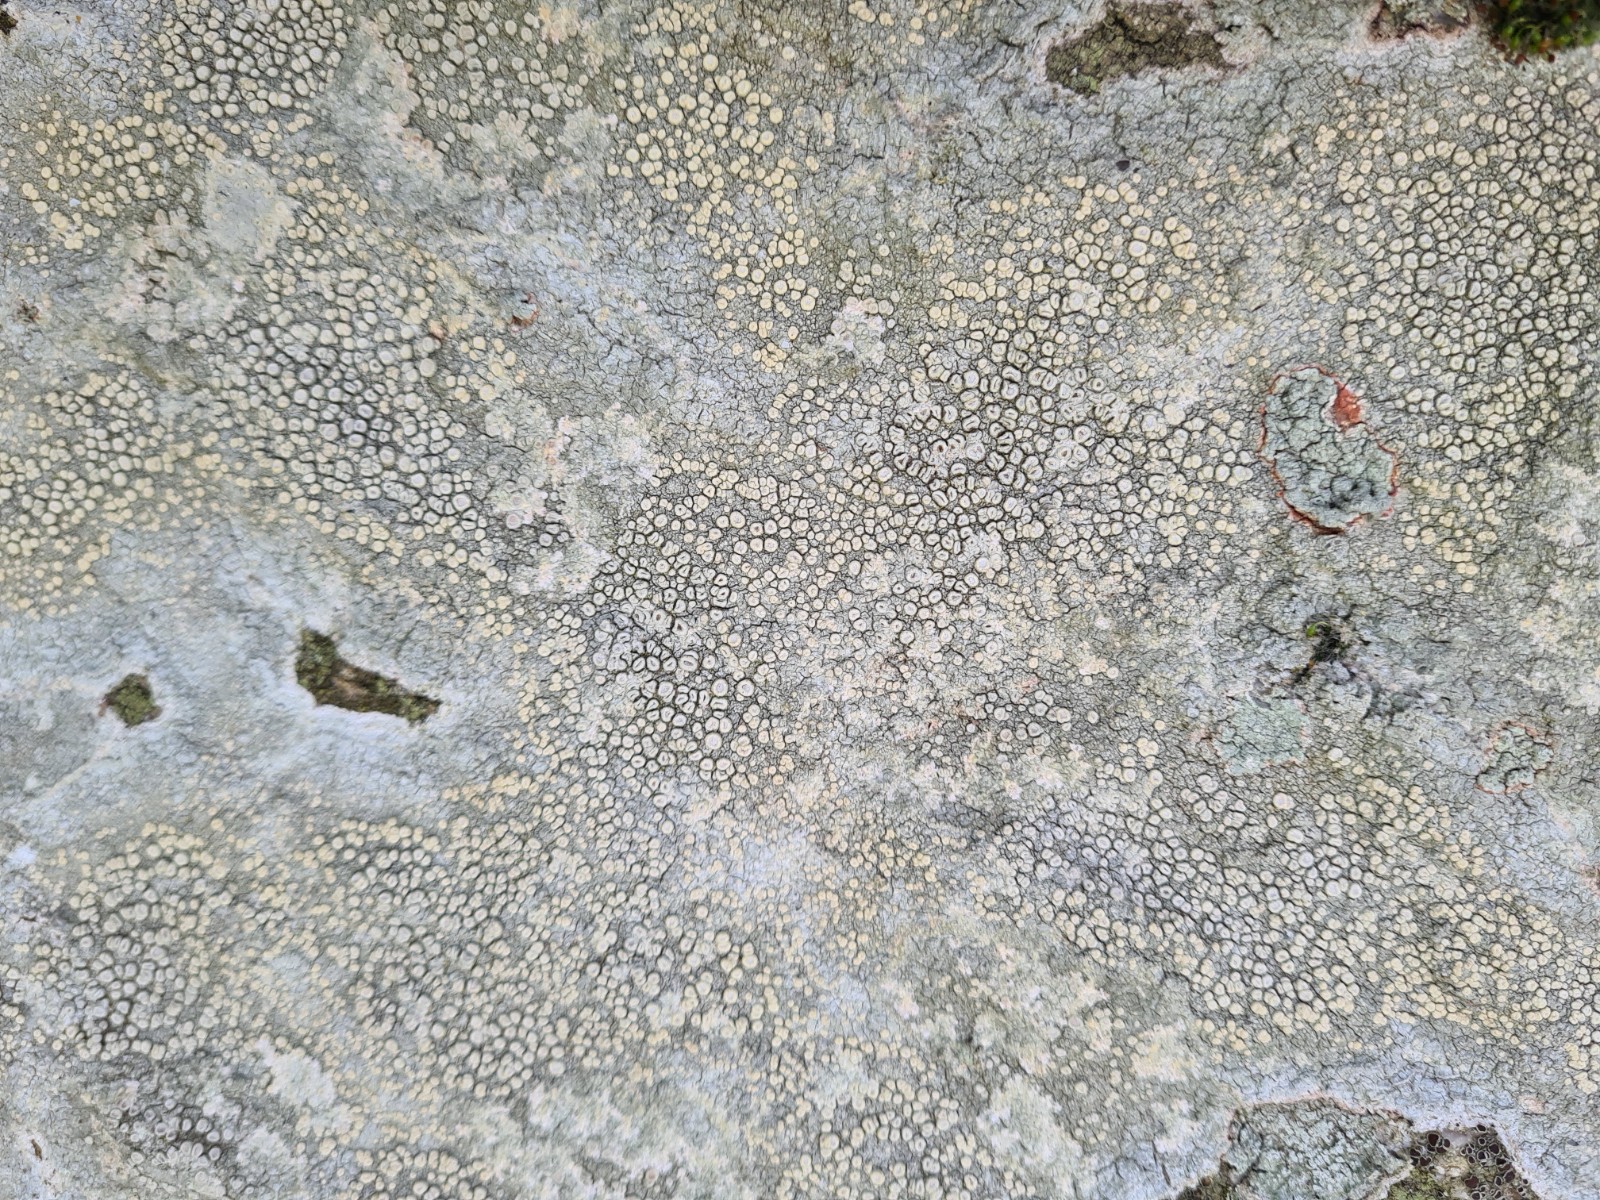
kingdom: Fungi
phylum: Ascomycota
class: Lecanoromycetes
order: Pertusariales
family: Ochrolechiaceae
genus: Ochrolechia
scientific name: Ochrolechia parella
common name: almindelig blegskivelav
